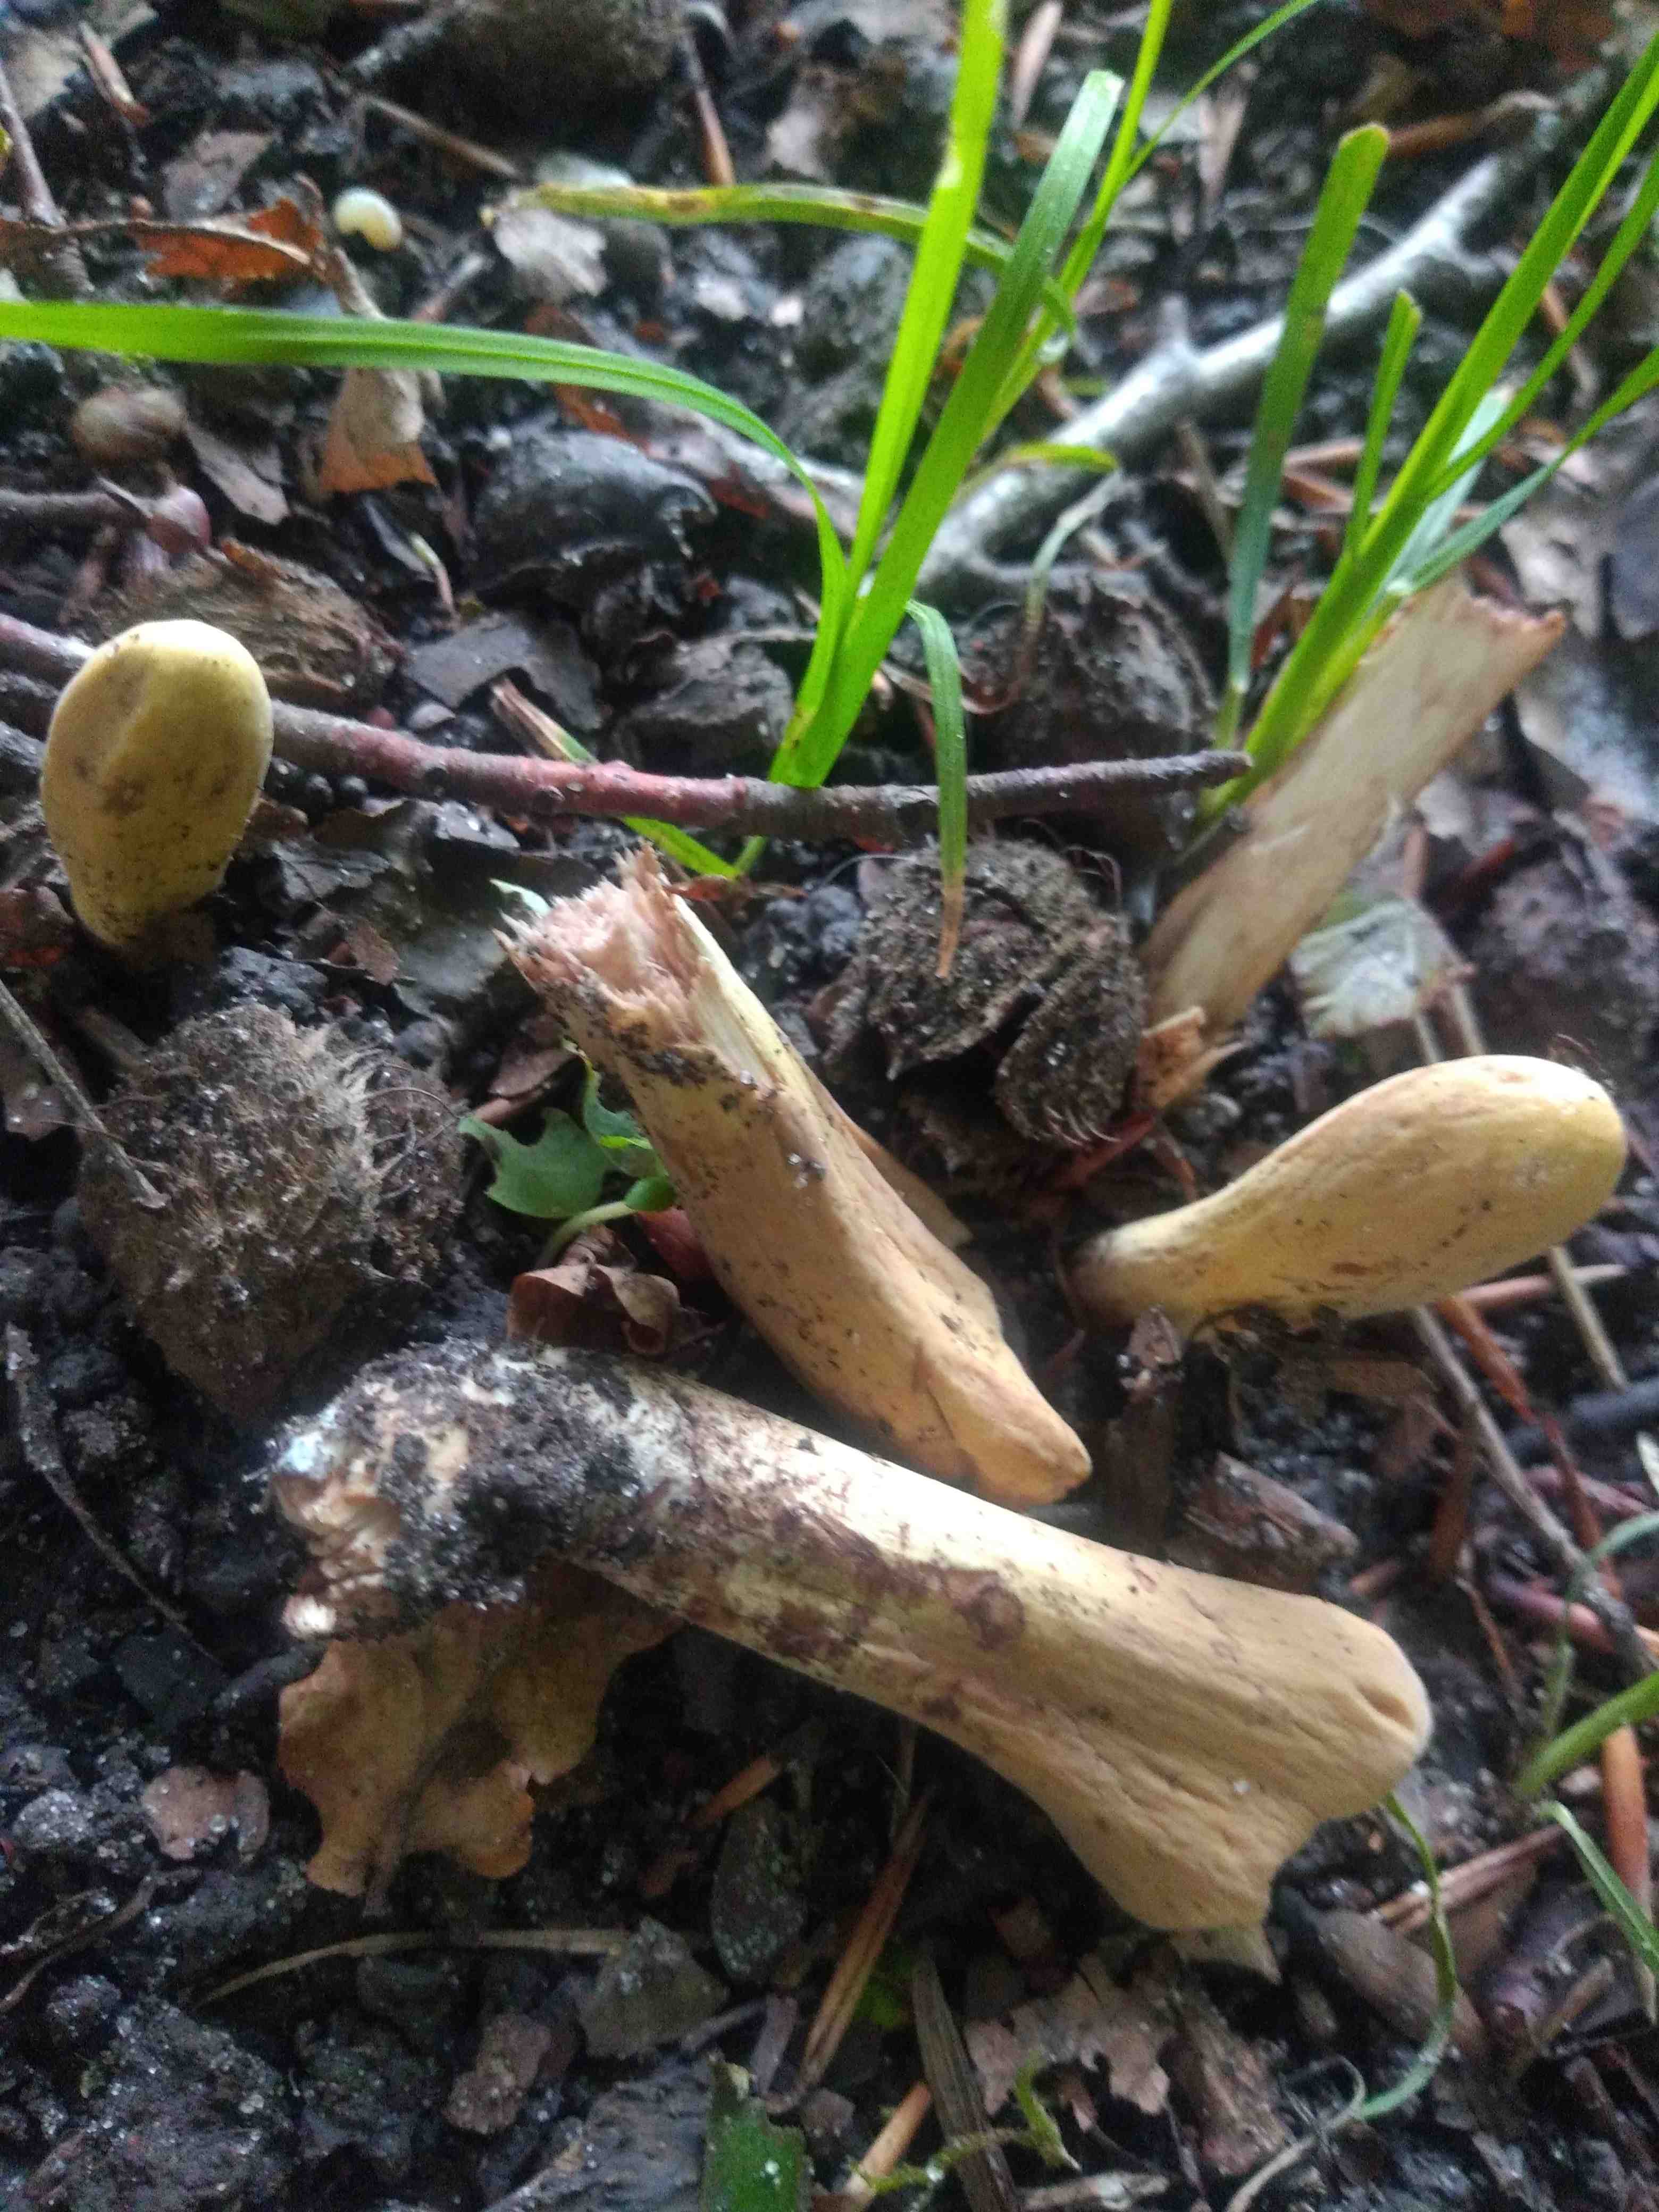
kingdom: Fungi
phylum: Basidiomycota
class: Agaricomycetes
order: Gomphales
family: Clavariadelphaceae
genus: Clavariadelphus
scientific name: Clavariadelphus pistillaris
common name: herkules-kæmpekølle
